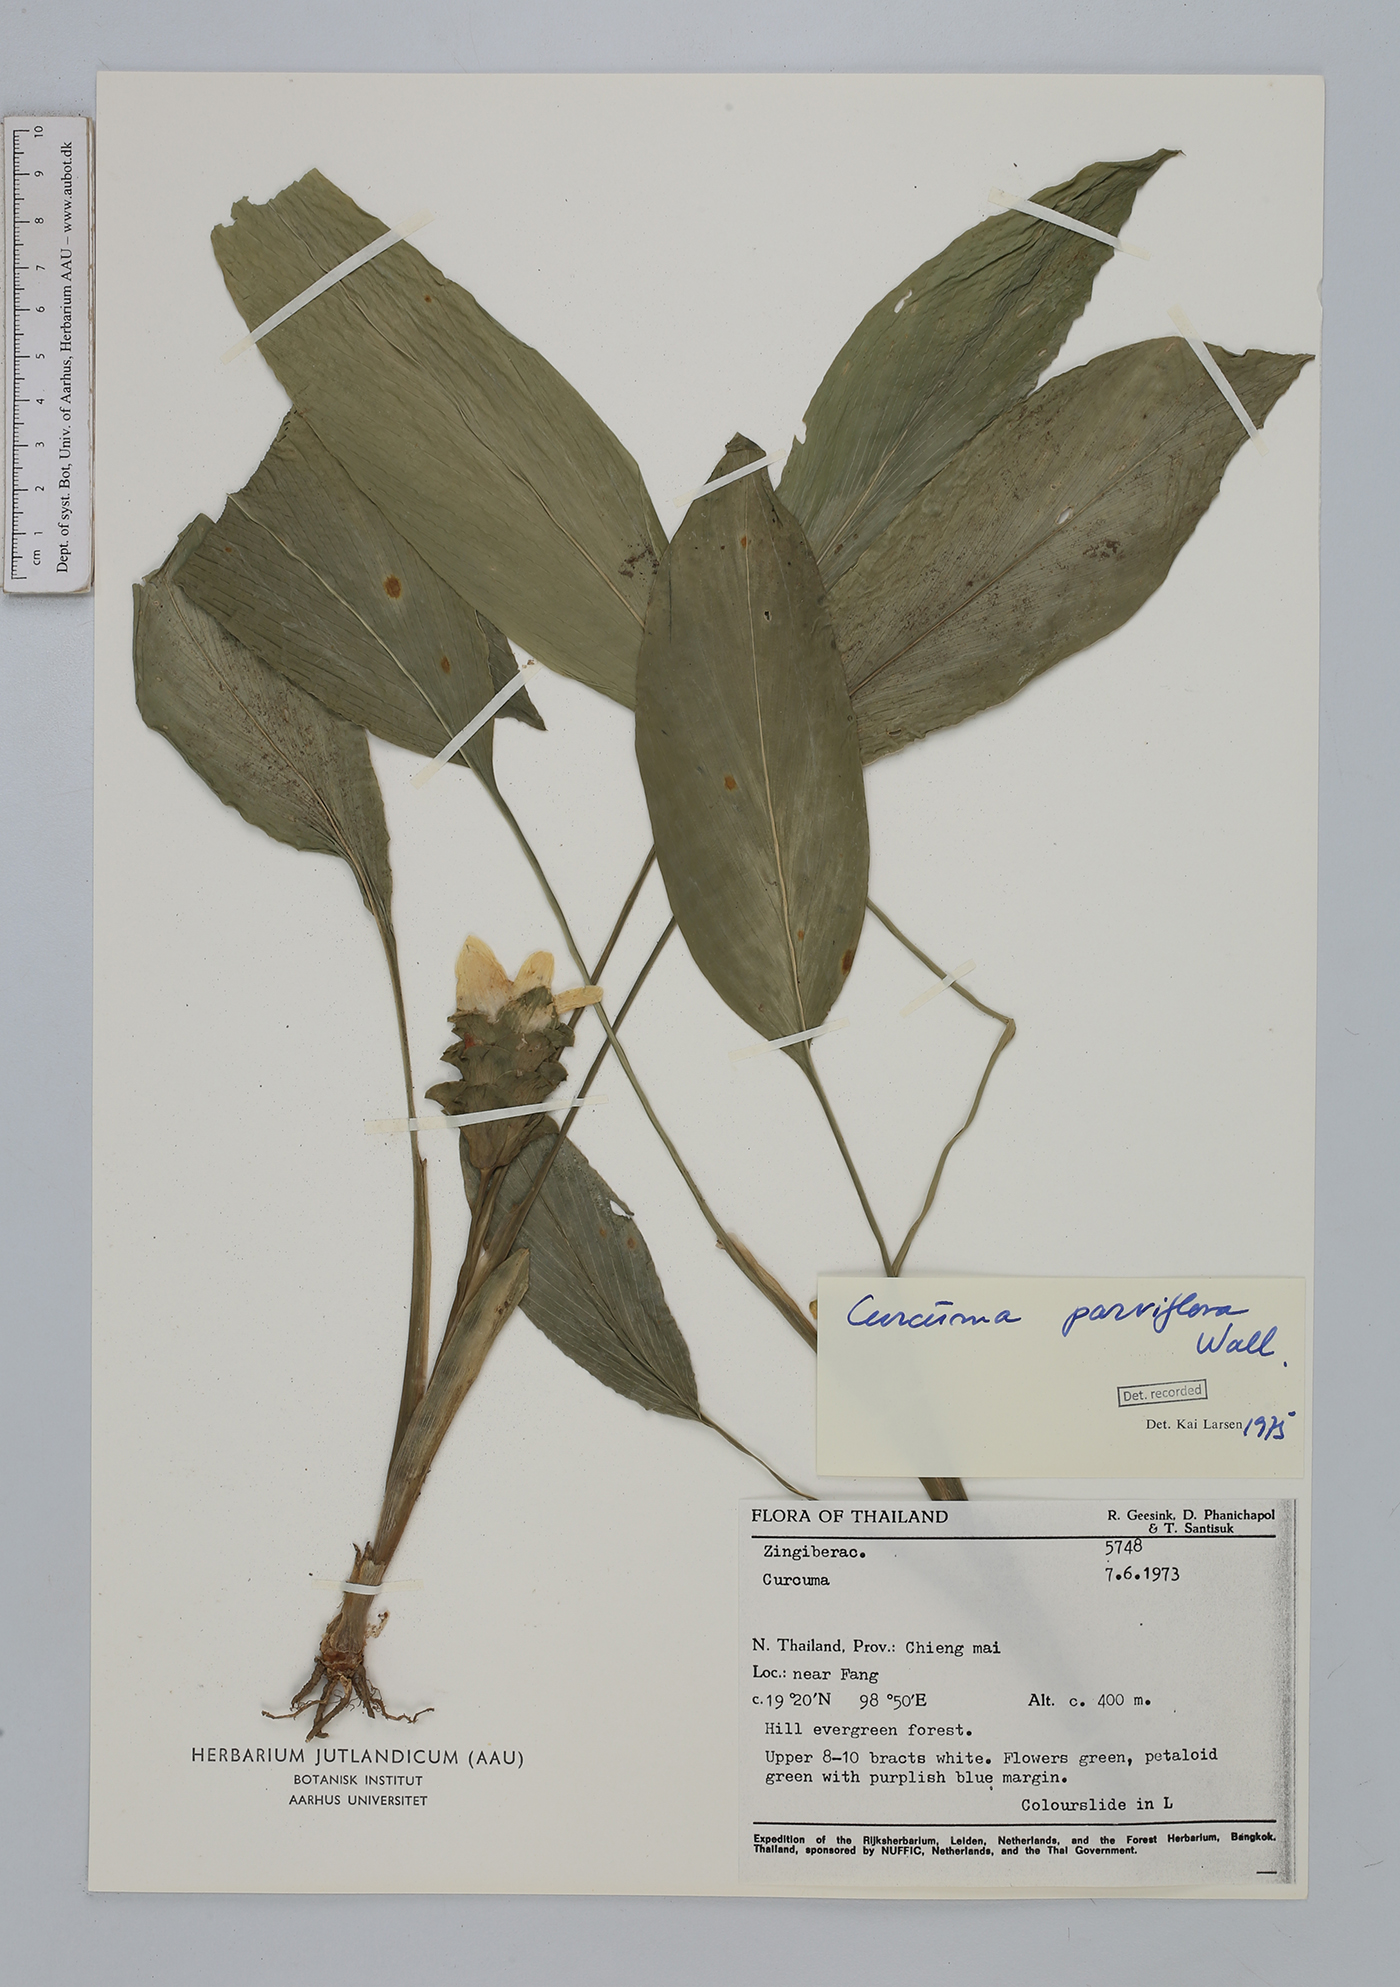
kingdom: Plantae
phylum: Tracheophyta
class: Liliopsida
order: Zingiberales
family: Zingiberaceae
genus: Curcuma
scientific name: Curcuma parviflora
